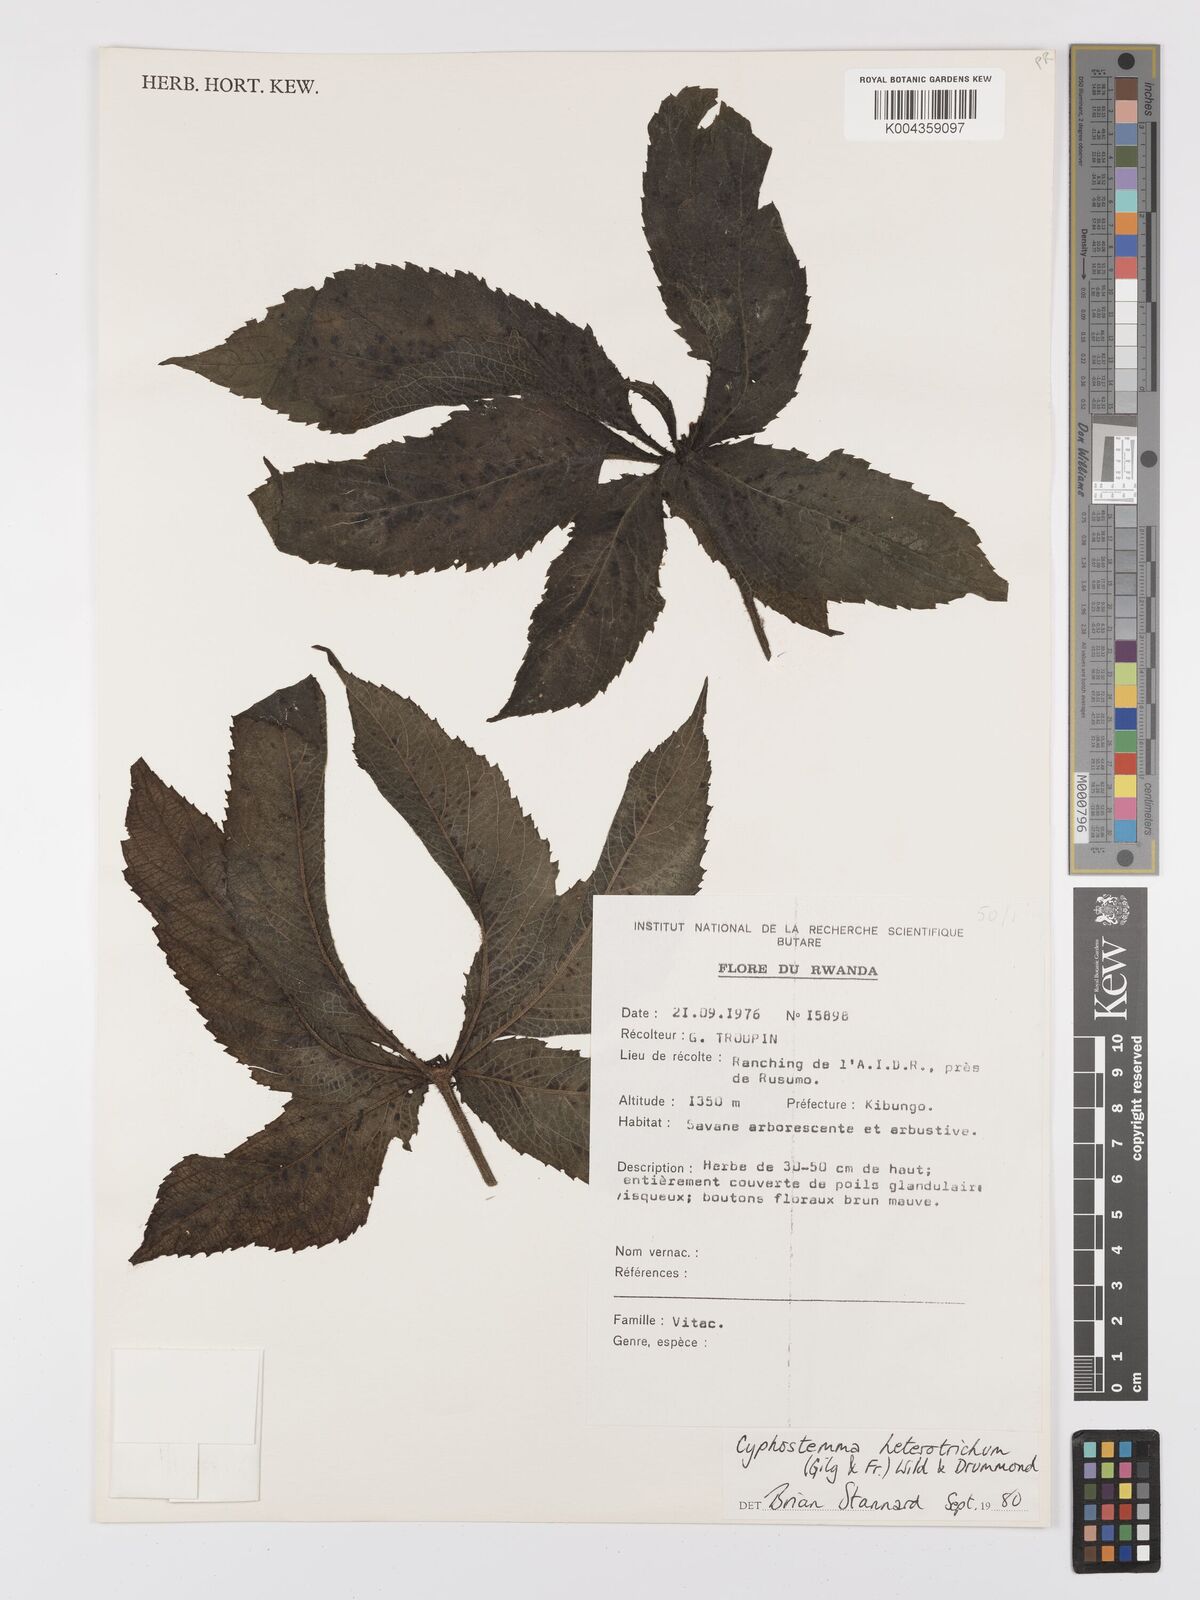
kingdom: Plantae
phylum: Tracheophyta
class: Magnoliopsida
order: Vitales
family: Vitaceae
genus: Cyphostemma
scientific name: Cyphostemma heterotrichum
